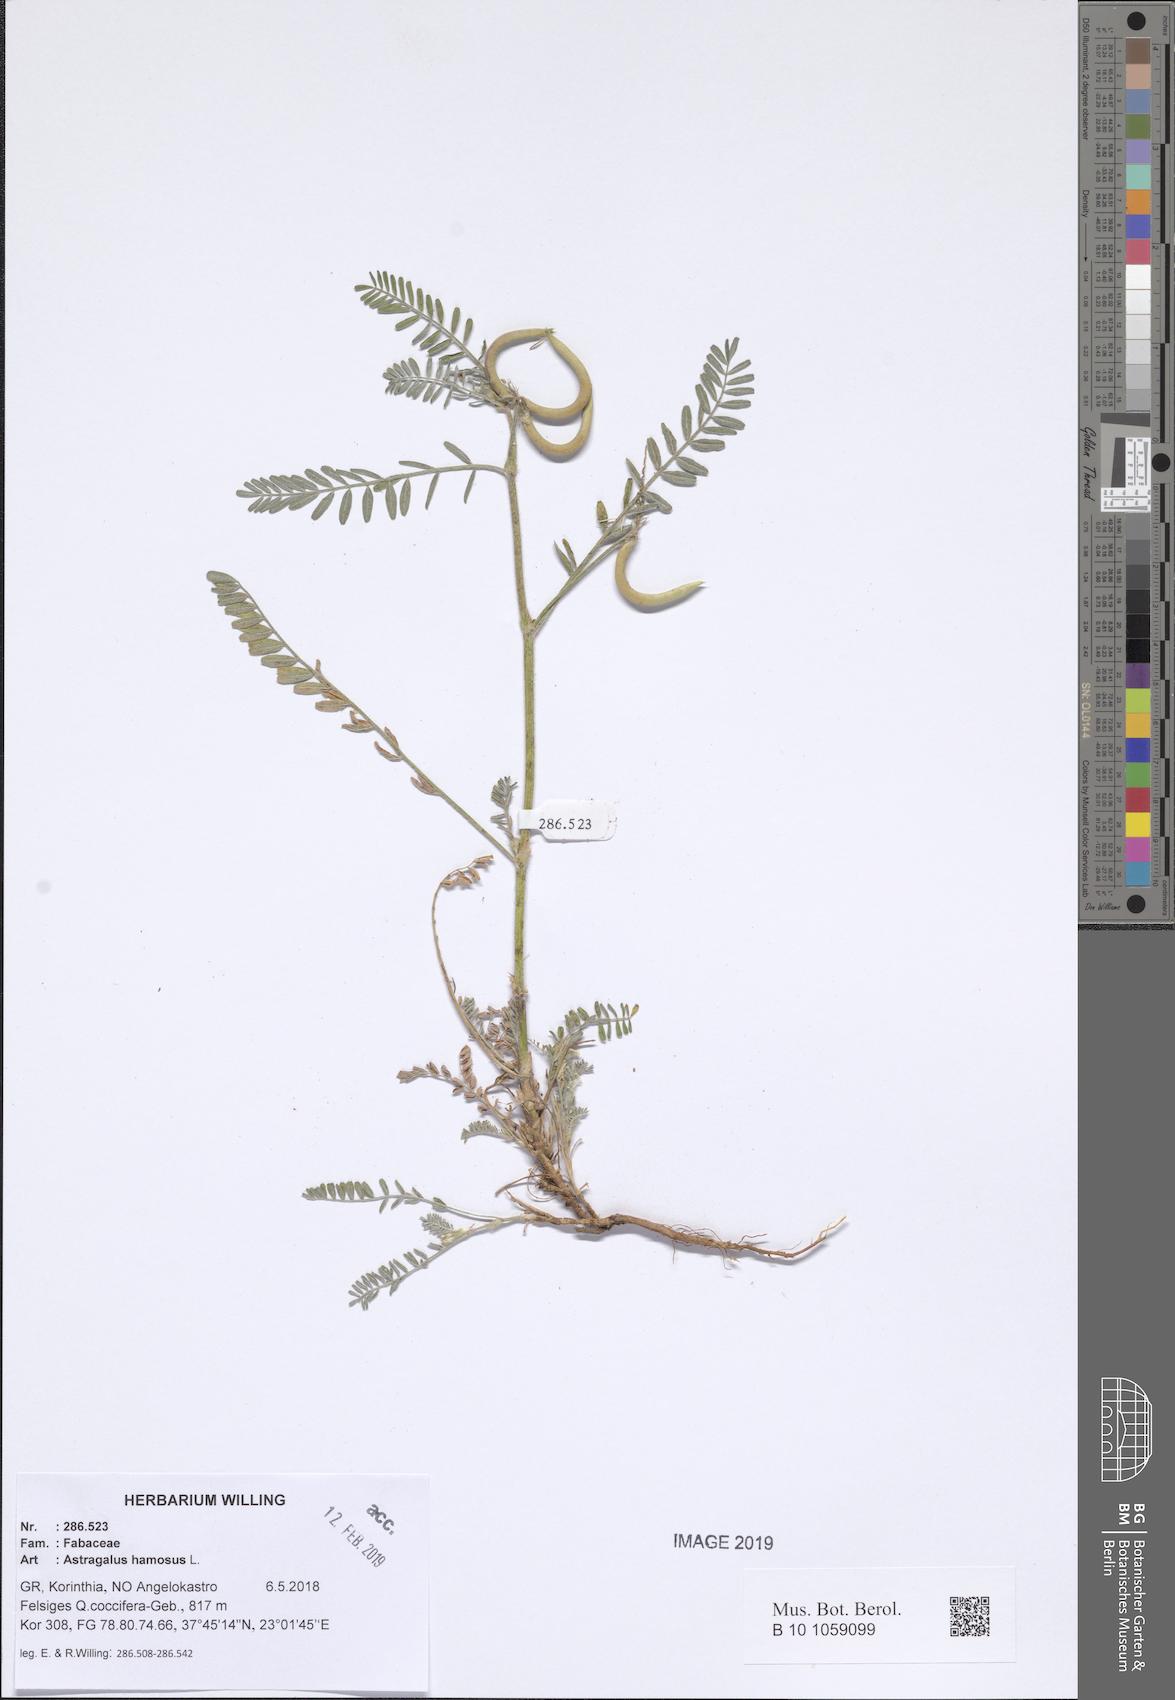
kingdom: Plantae
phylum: Tracheophyta
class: Magnoliopsida
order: Fabales
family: Fabaceae
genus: Astragalus
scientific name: Astragalus hamosus
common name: European milkvetch
